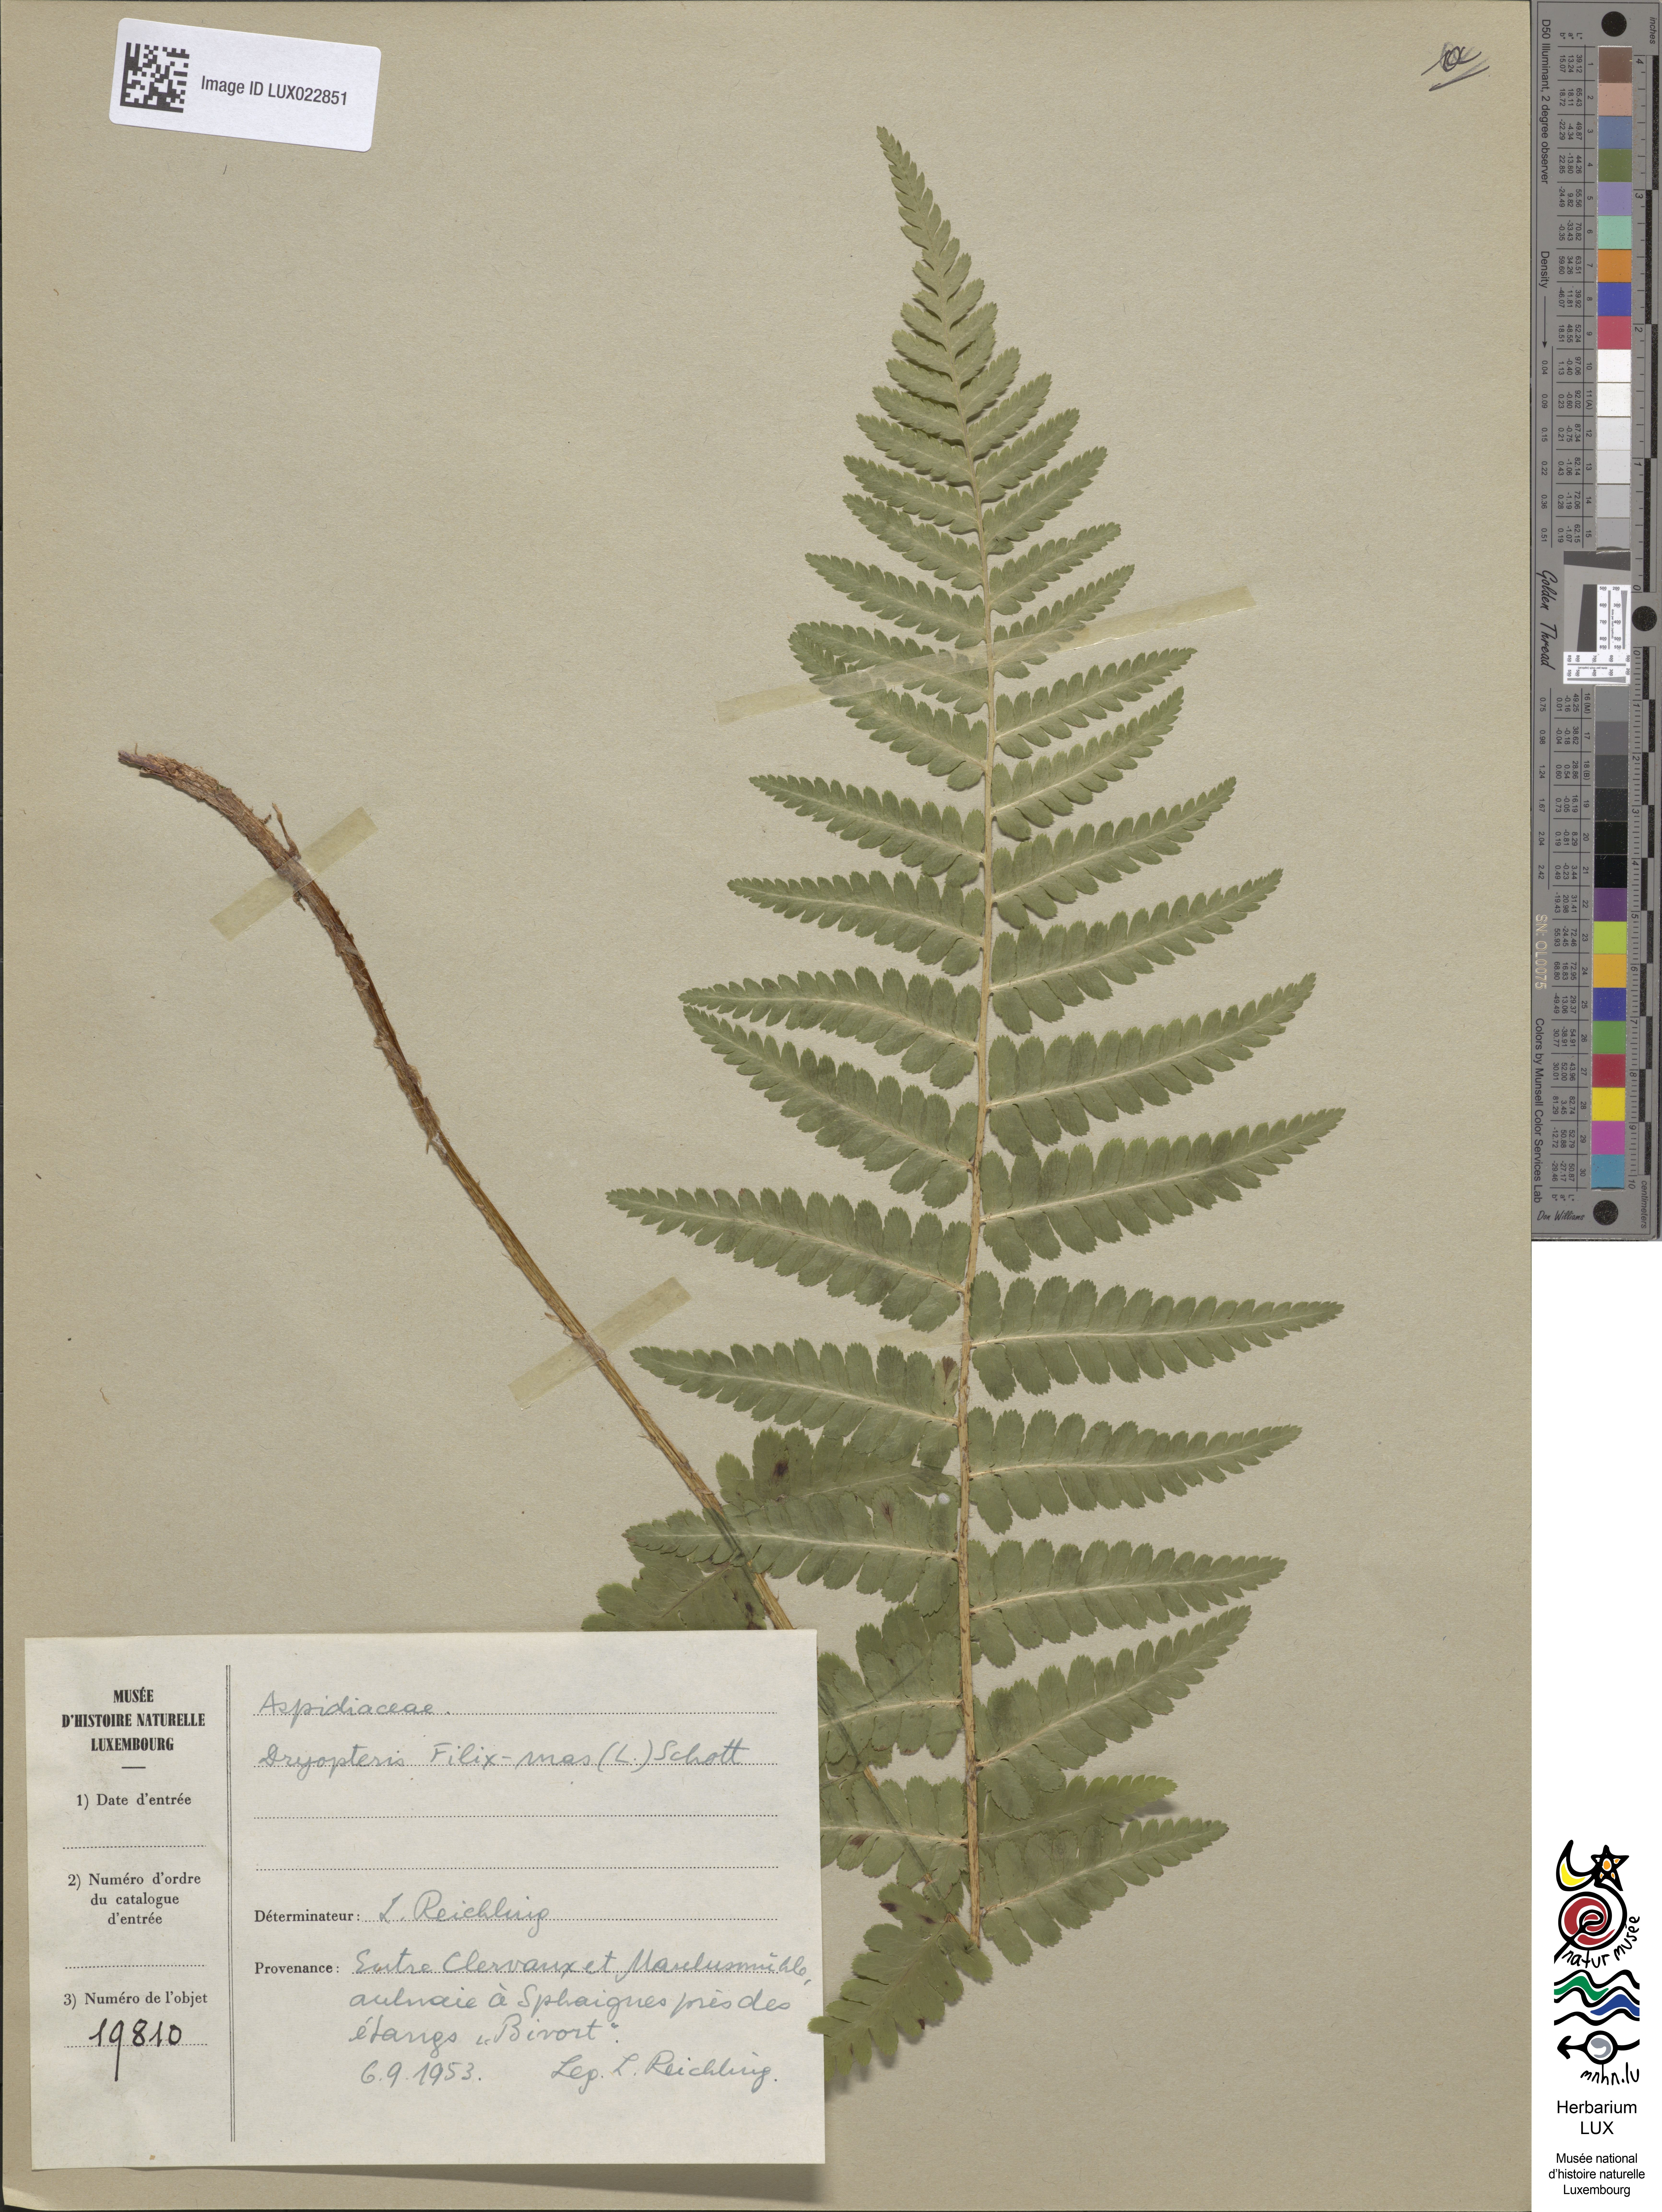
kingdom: Plantae
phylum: Tracheophyta
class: Polypodiopsida
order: Polypodiales
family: Dryopteridaceae
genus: Dryopteris
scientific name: Dryopteris filix-mas
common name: Male fern
